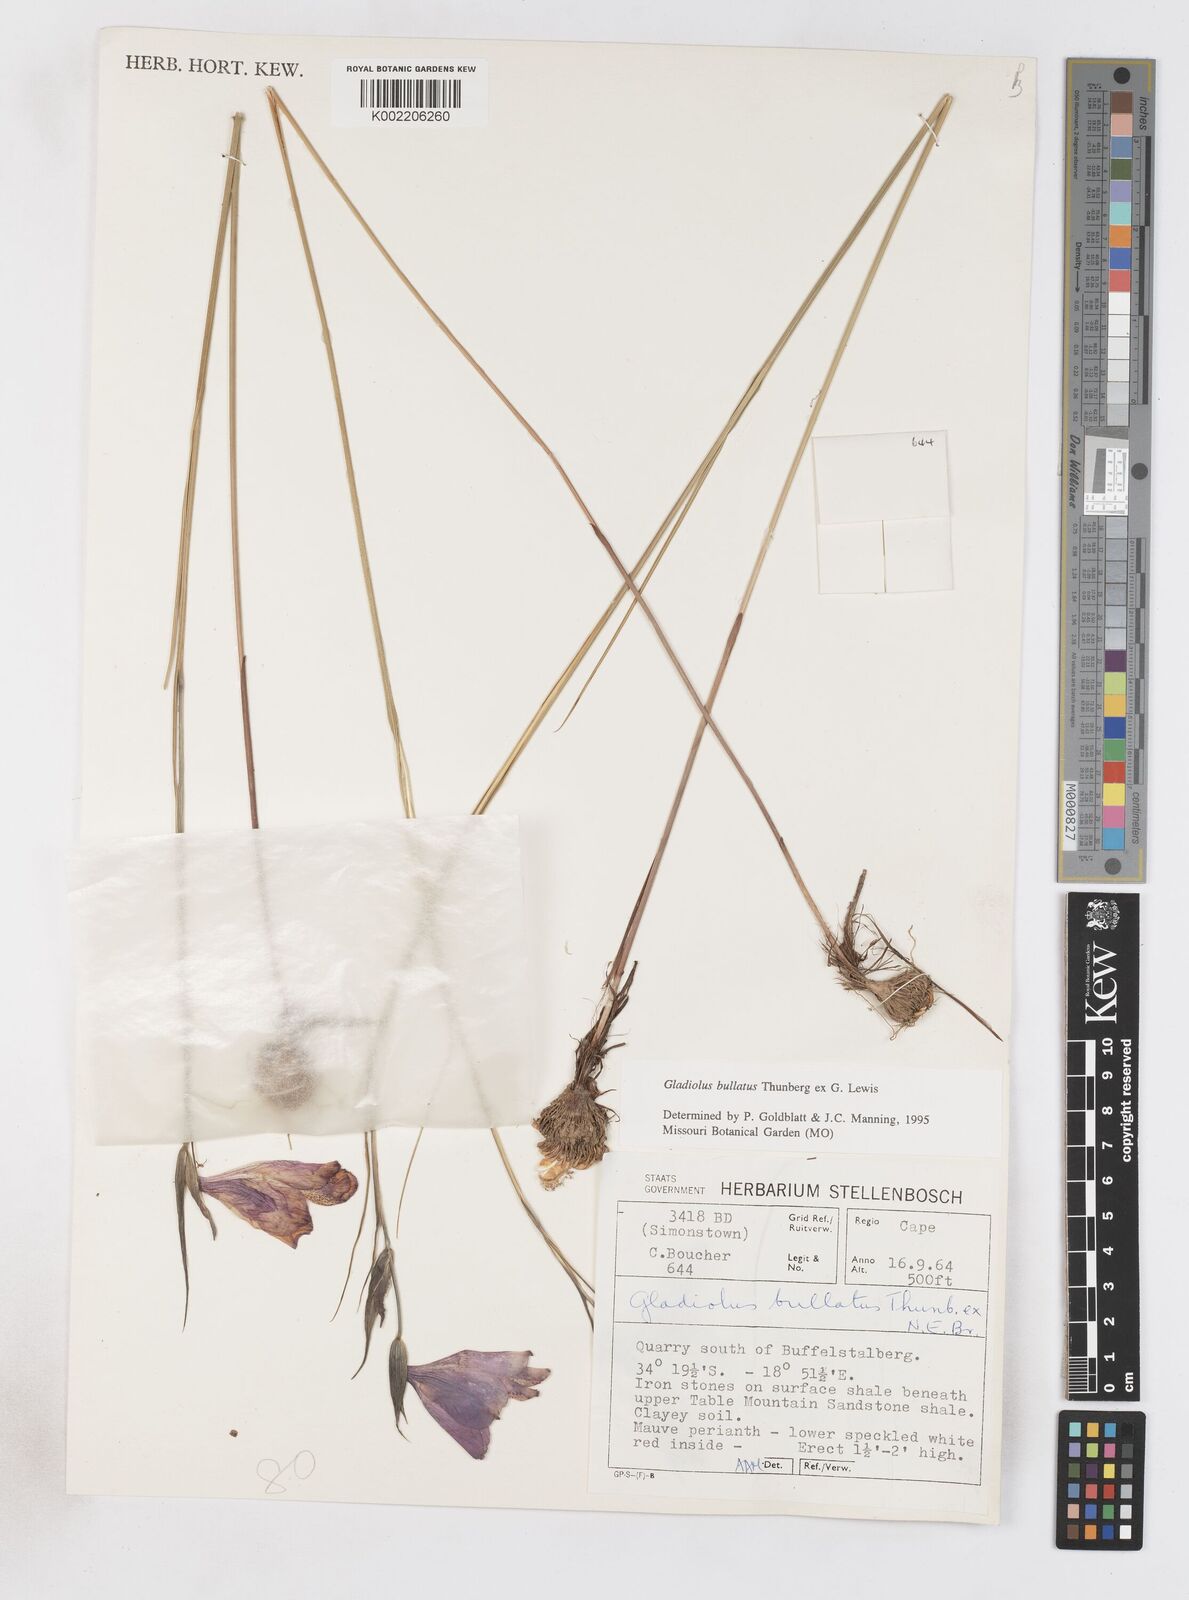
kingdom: Plantae
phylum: Tracheophyta
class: Liliopsida
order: Asparagales
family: Iridaceae
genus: Gladiolus
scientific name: Gladiolus bullatus
